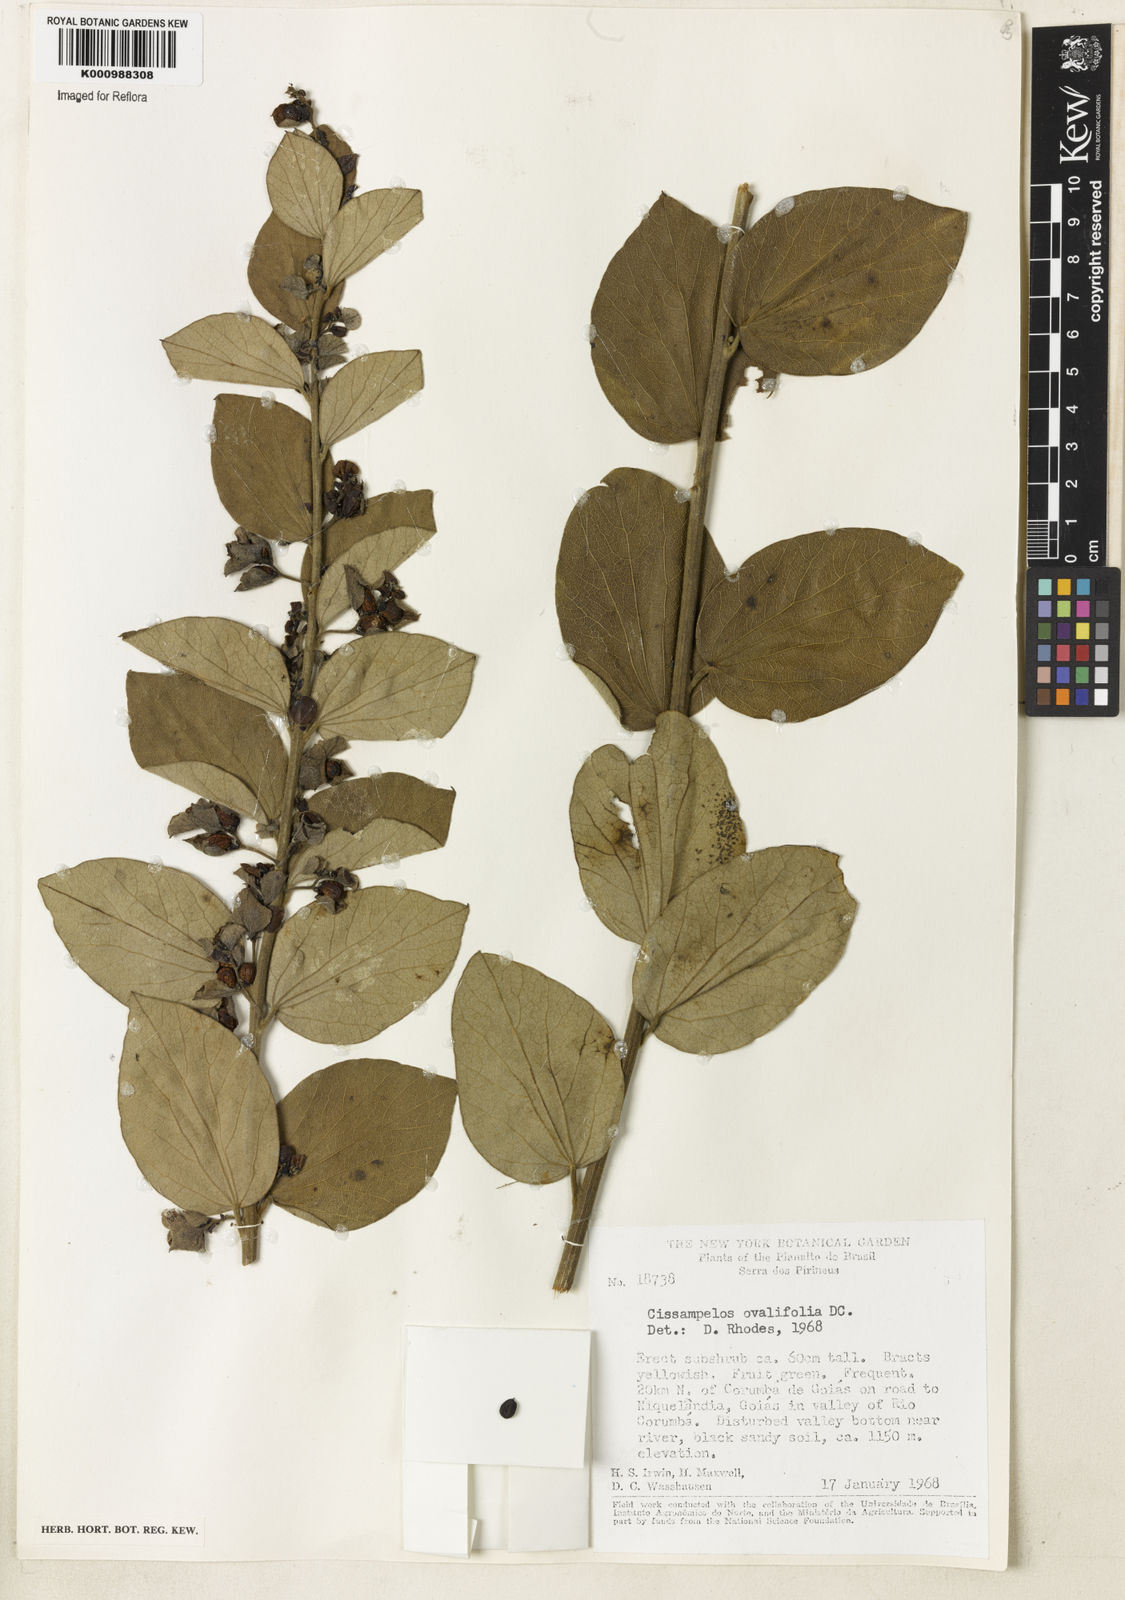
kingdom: Plantae
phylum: Tracheophyta
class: Magnoliopsida
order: Ranunculales
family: Menispermaceae
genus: Cissampelos
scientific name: Cissampelos ovalifolia
